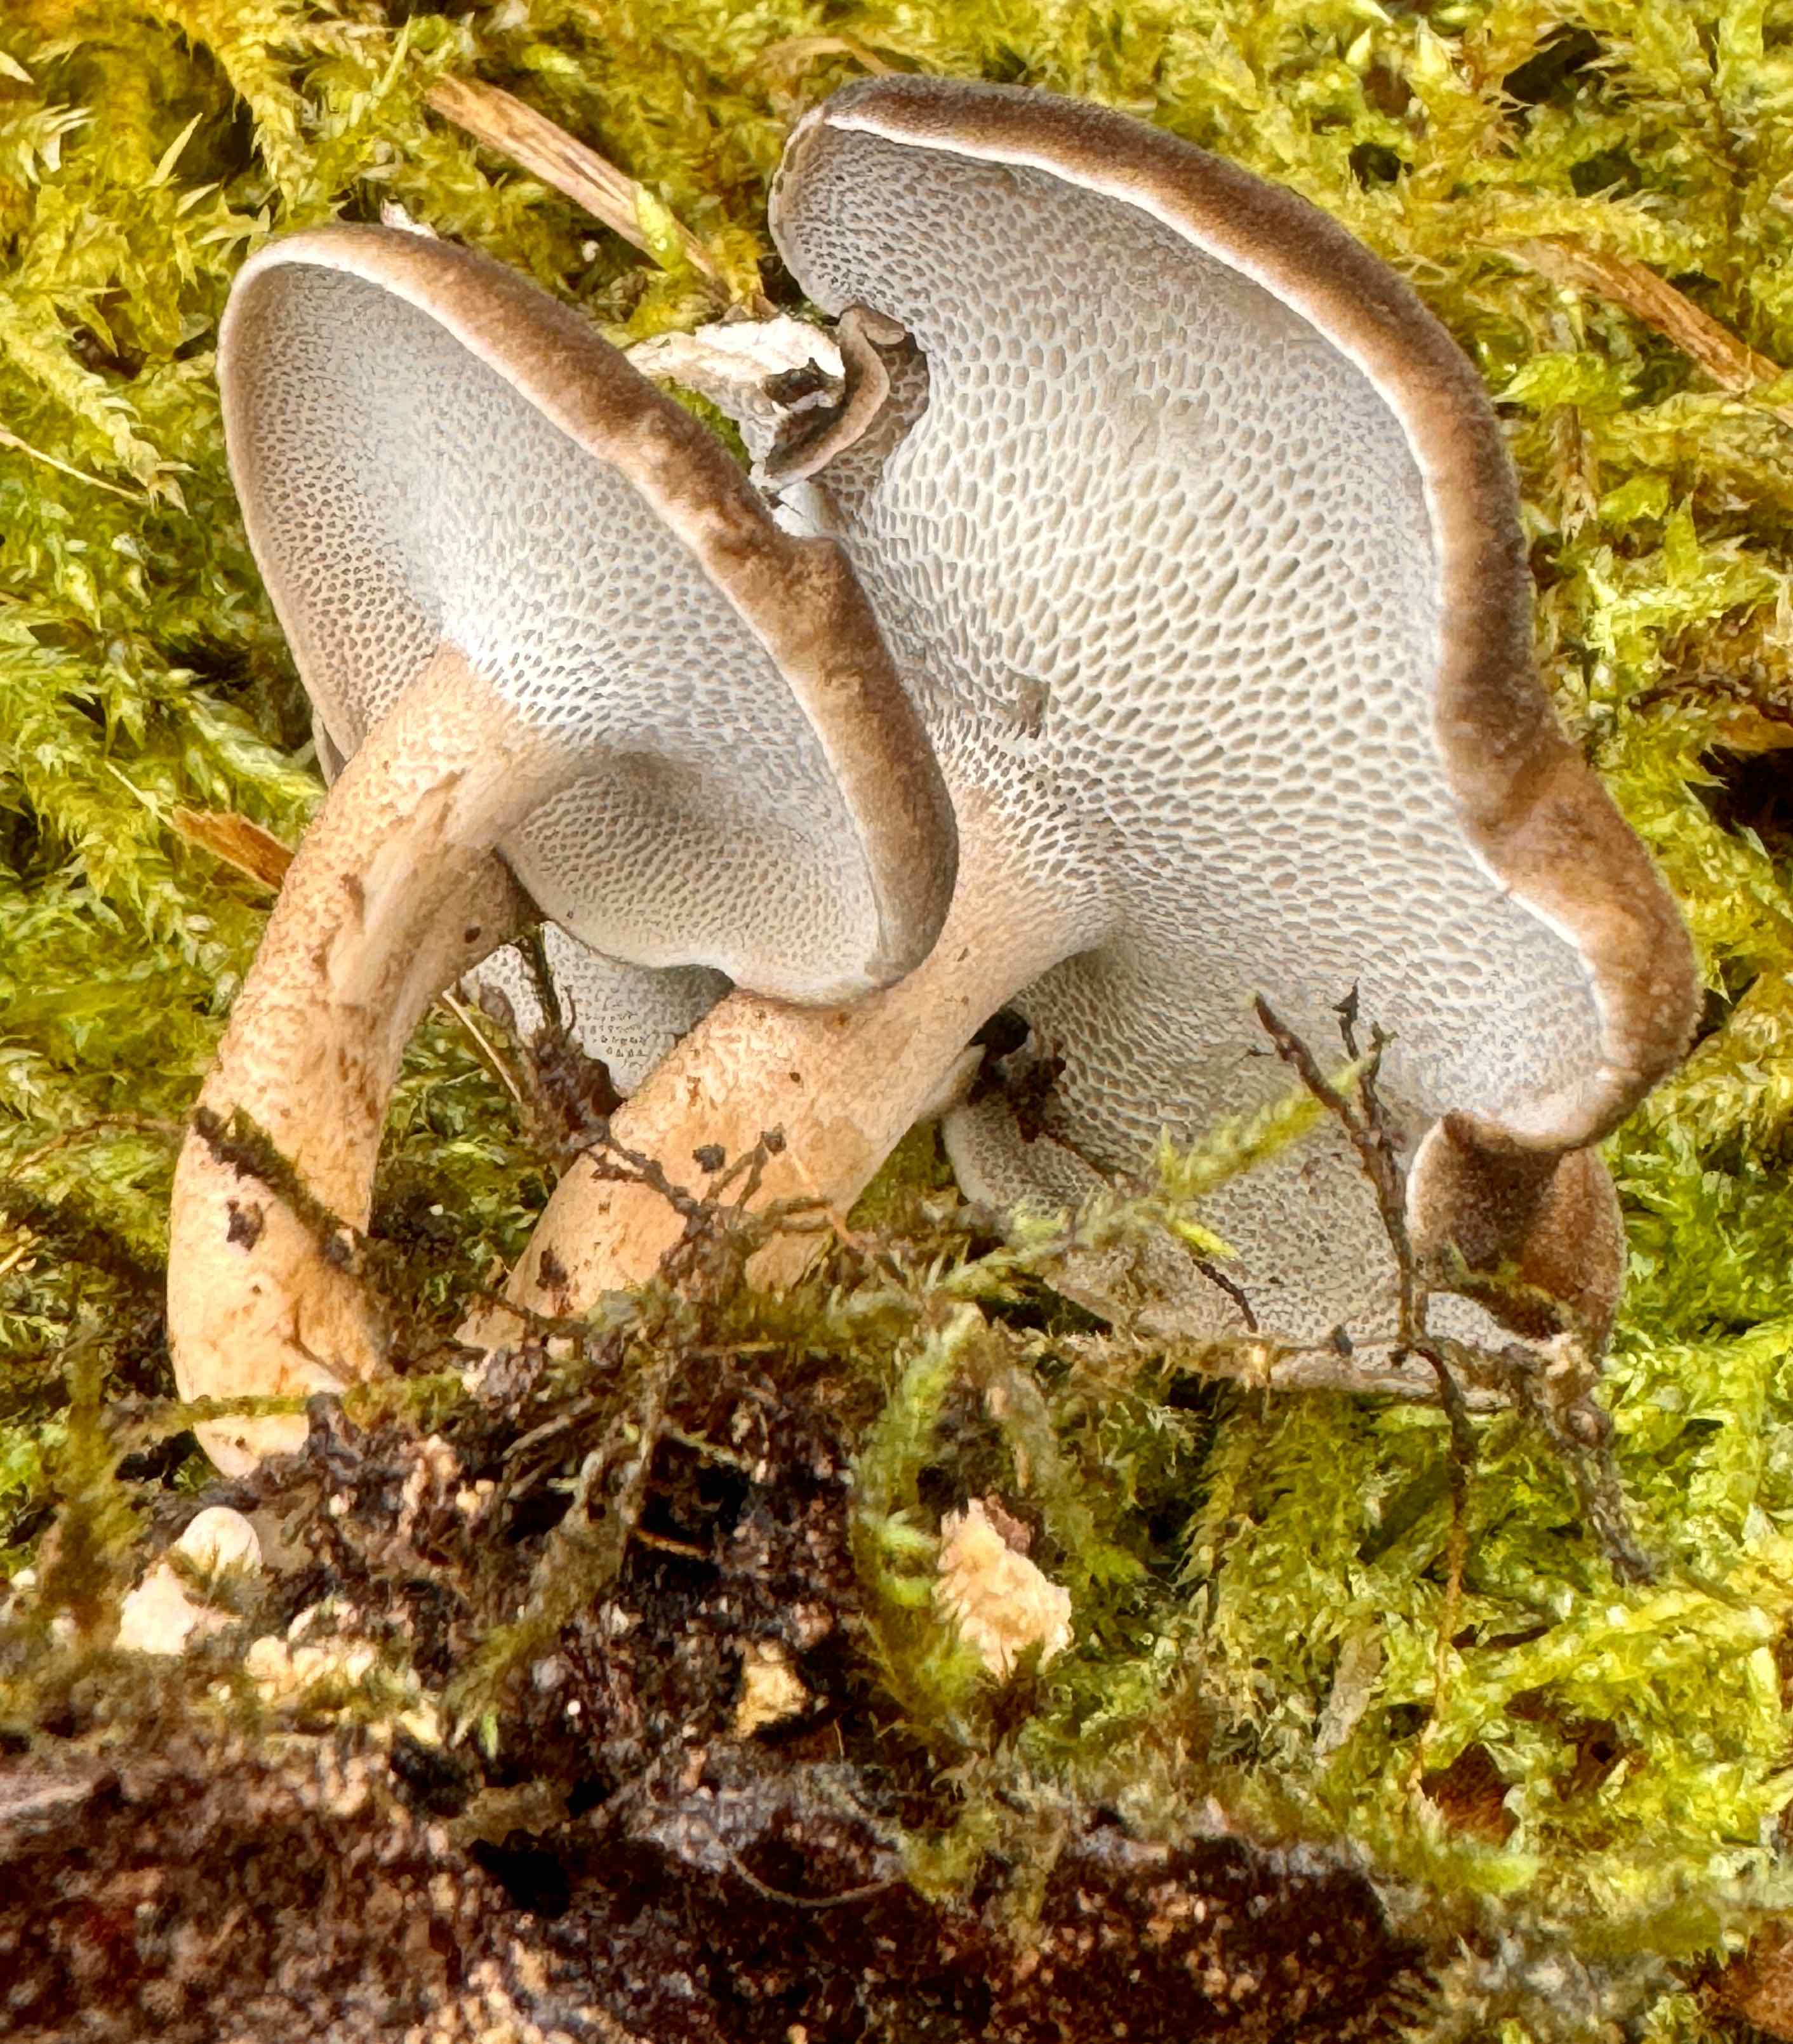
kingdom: Fungi
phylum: Basidiomycota
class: Agaricomycetes
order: Polyporales
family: Polyporaceae
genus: Lentinus
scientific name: Lentinus brumalis
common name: vinter-stilkporesvamp
